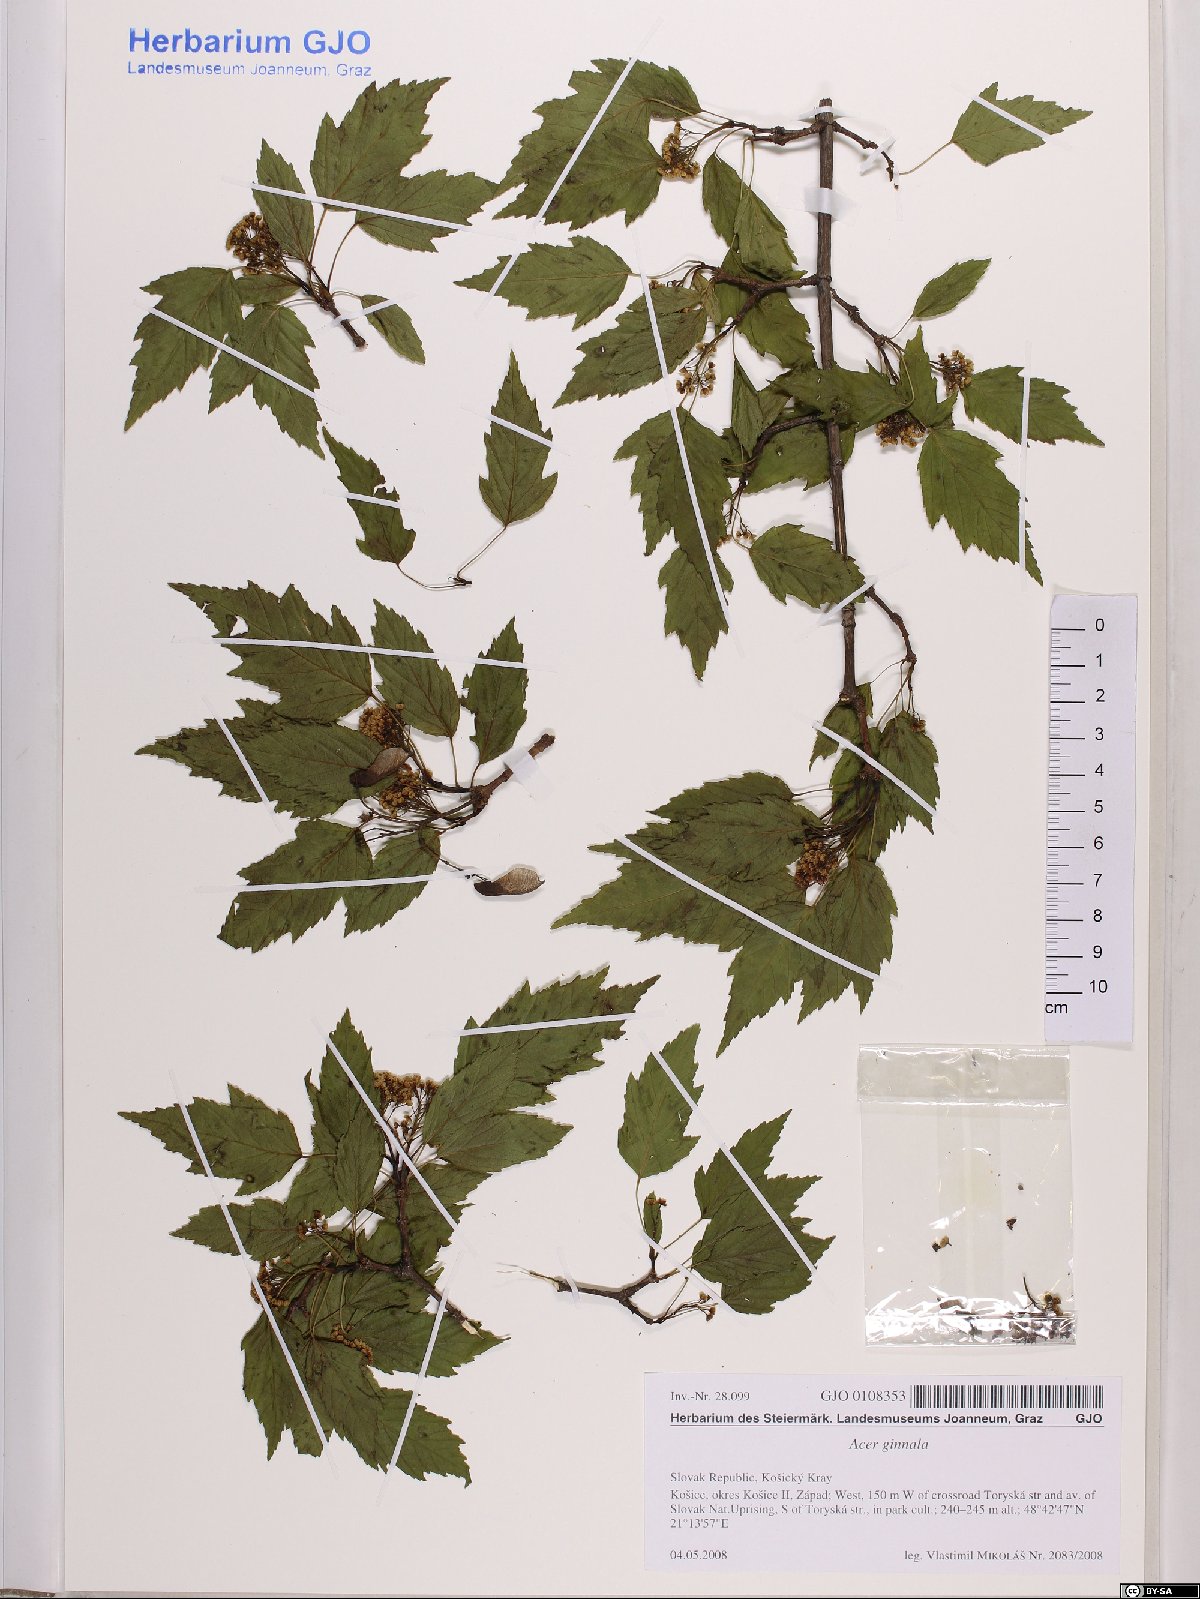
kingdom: Plantae
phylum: Tracheophyta
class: Magnoliopsida
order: Sapindales
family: Sapindaceae
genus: Acer
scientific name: Acer tataricum
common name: Tartar maple
